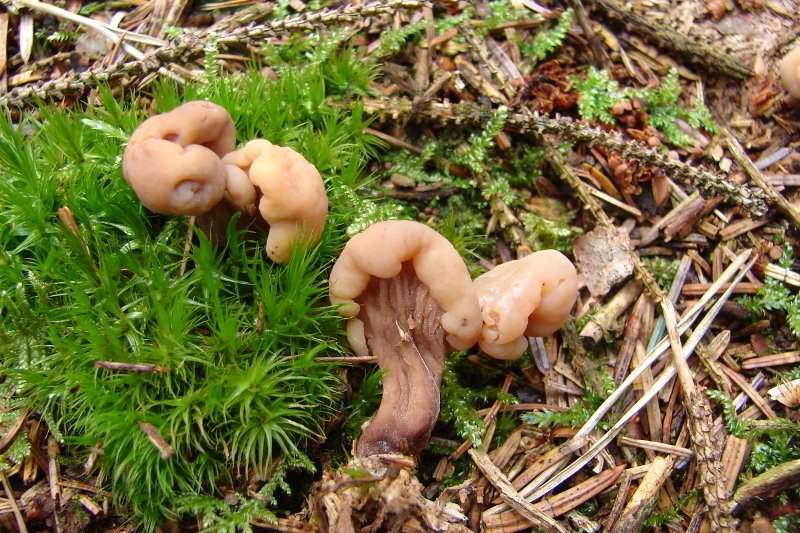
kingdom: Fungi
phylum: Ascomycota
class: Leotiomycetes
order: Rhytismatales
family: Cudoniaceae
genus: Cudonia
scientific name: Cudonia circinans
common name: hekserings-hjelmmorkel
